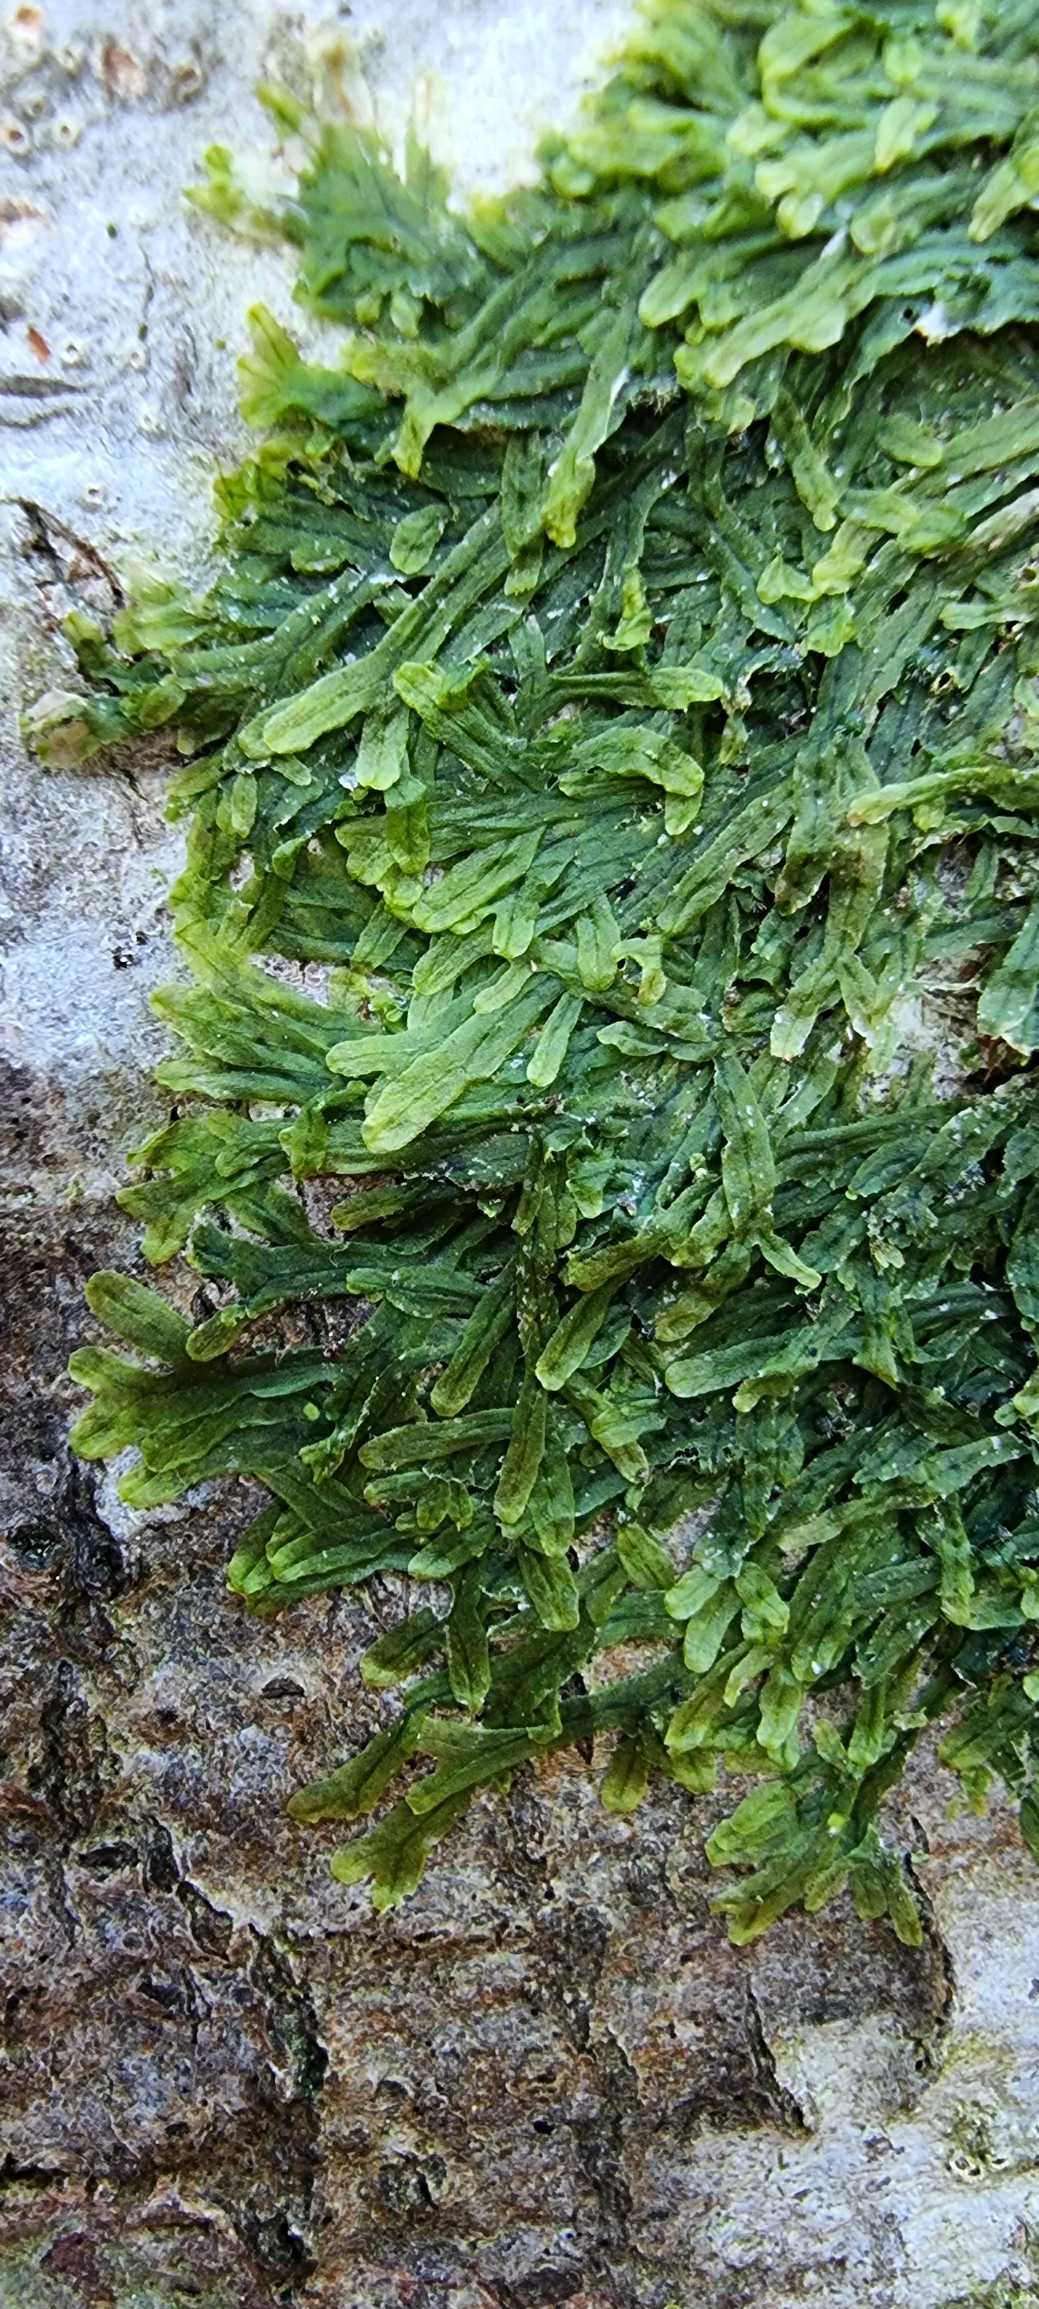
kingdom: Plantae
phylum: Marchantiophyta
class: Jungermanniopsida
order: Metzgeriales
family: Metzgeriaceae
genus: Metzgeria
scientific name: Metzgeria furcata
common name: Almindelig gaffelløv
